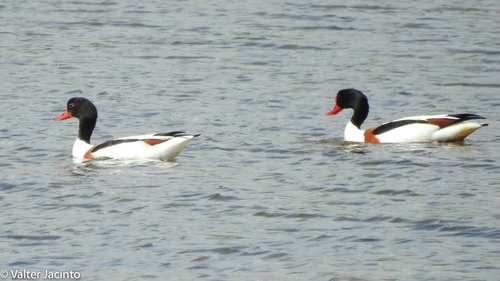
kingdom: Animalia
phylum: Chordata
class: Aves
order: Anseriformes
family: Anatidae
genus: Tadorna
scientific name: Tadorna tadorna
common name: Common shelduck
